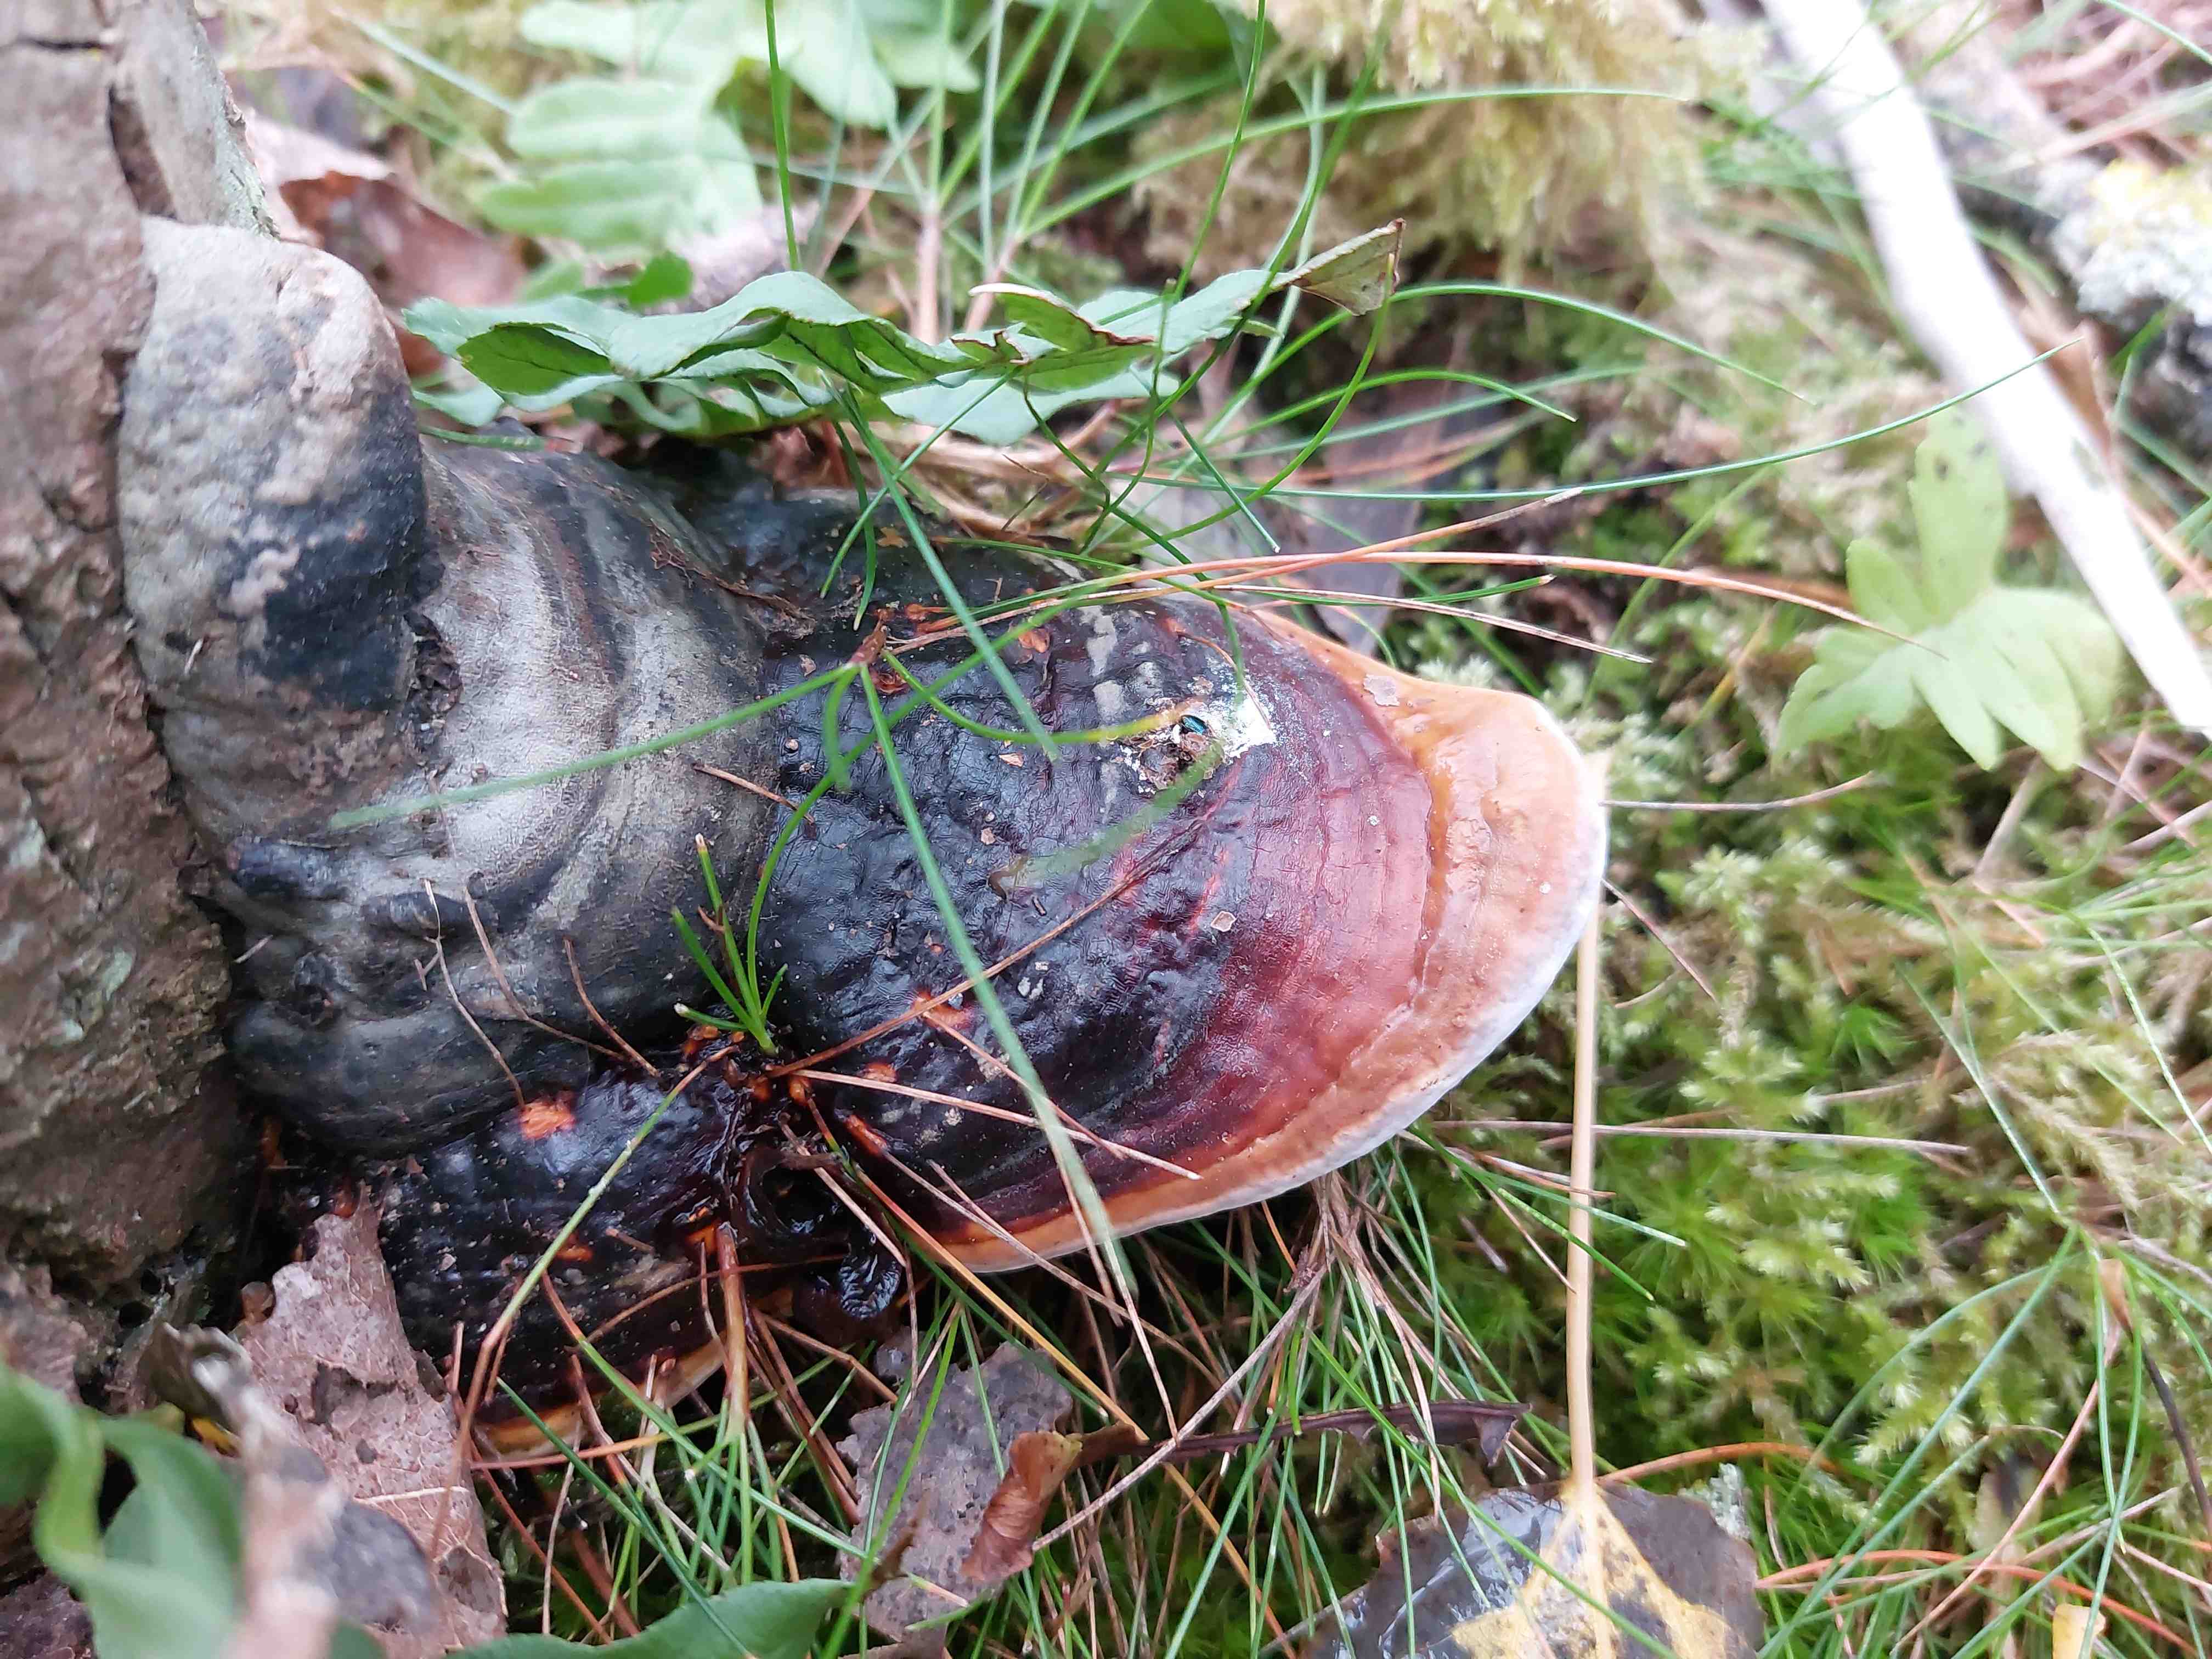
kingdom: Fungi
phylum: Basidiomycota
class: Agaricomycetes
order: Polyporales
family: Fomitopsidaceae
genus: Fomitopsis
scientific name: Fomitopsis pinicola
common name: randbæltet hovporesvamp
